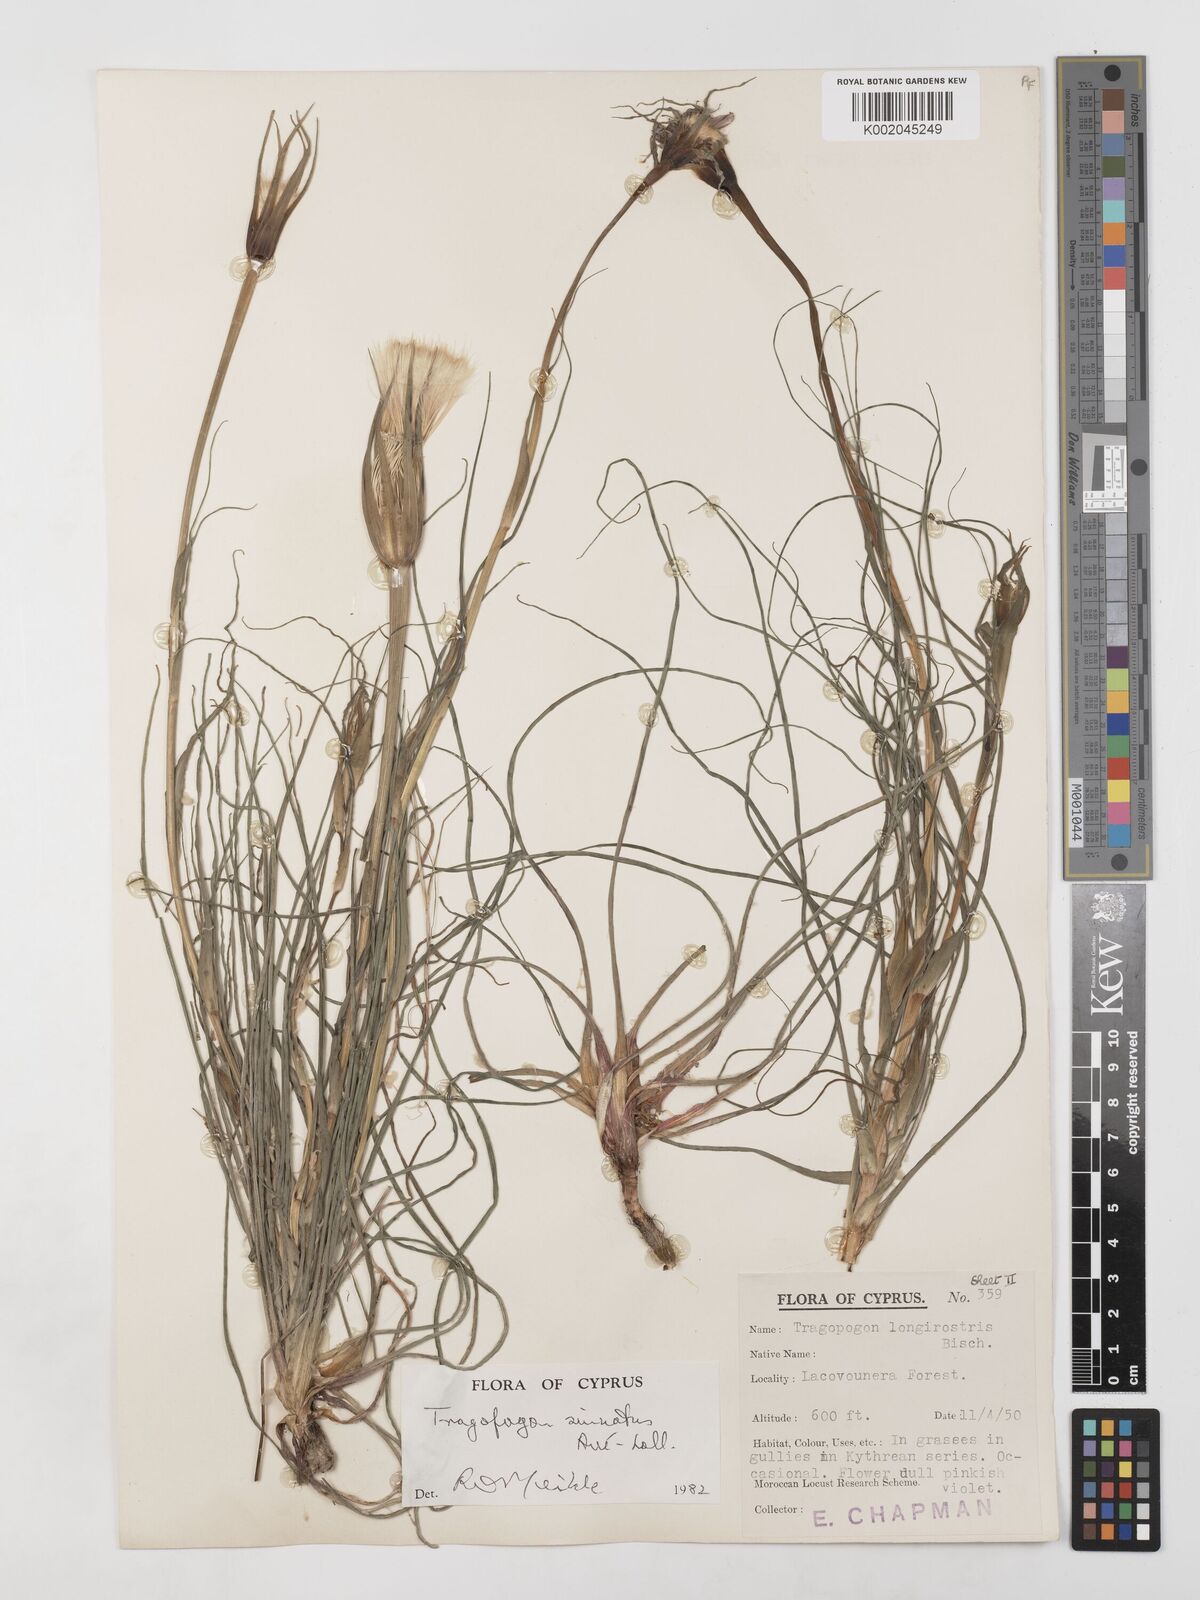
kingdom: Plantae
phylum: Tracheophyta
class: Magnoliopsida
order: Asterales
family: Asteraceae
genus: Tragopogon
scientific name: Tragopogon coelesyriacus
